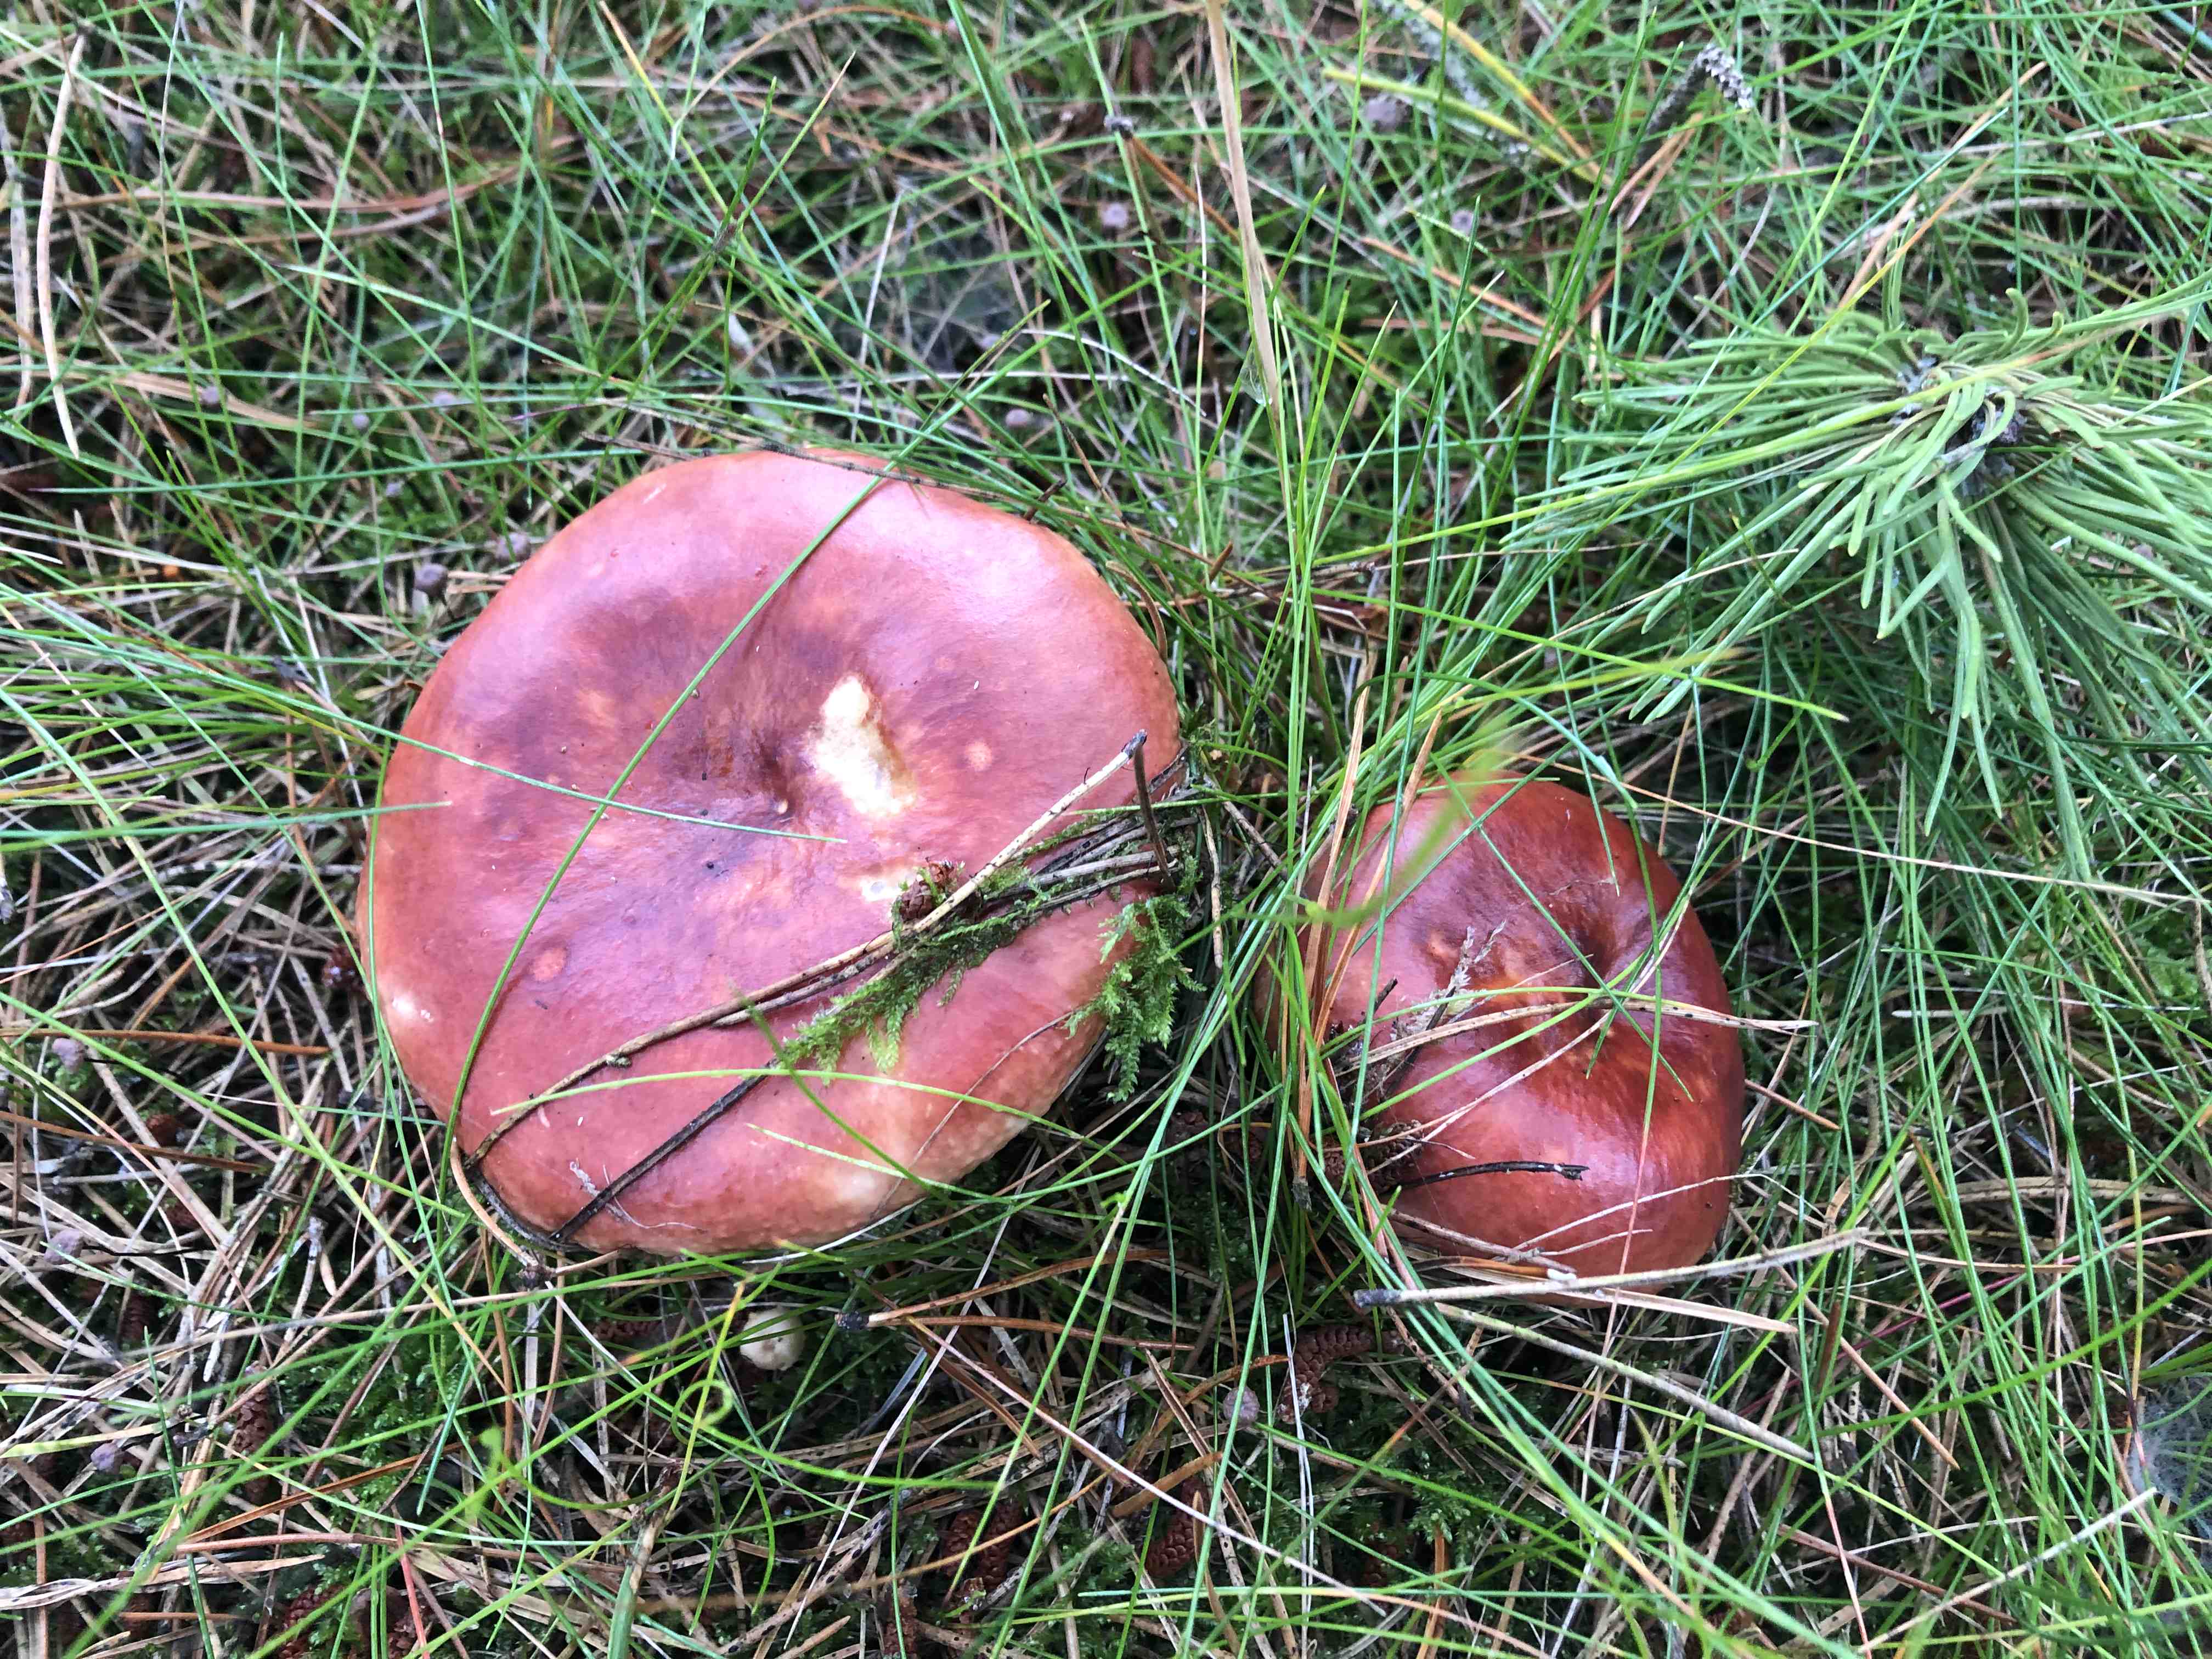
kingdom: Fungi
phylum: Basidiomycota
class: Agaricomycetes
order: Russulales
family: Russulaceae
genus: Russula
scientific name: Russula paludosa
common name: prægtig skørhat
